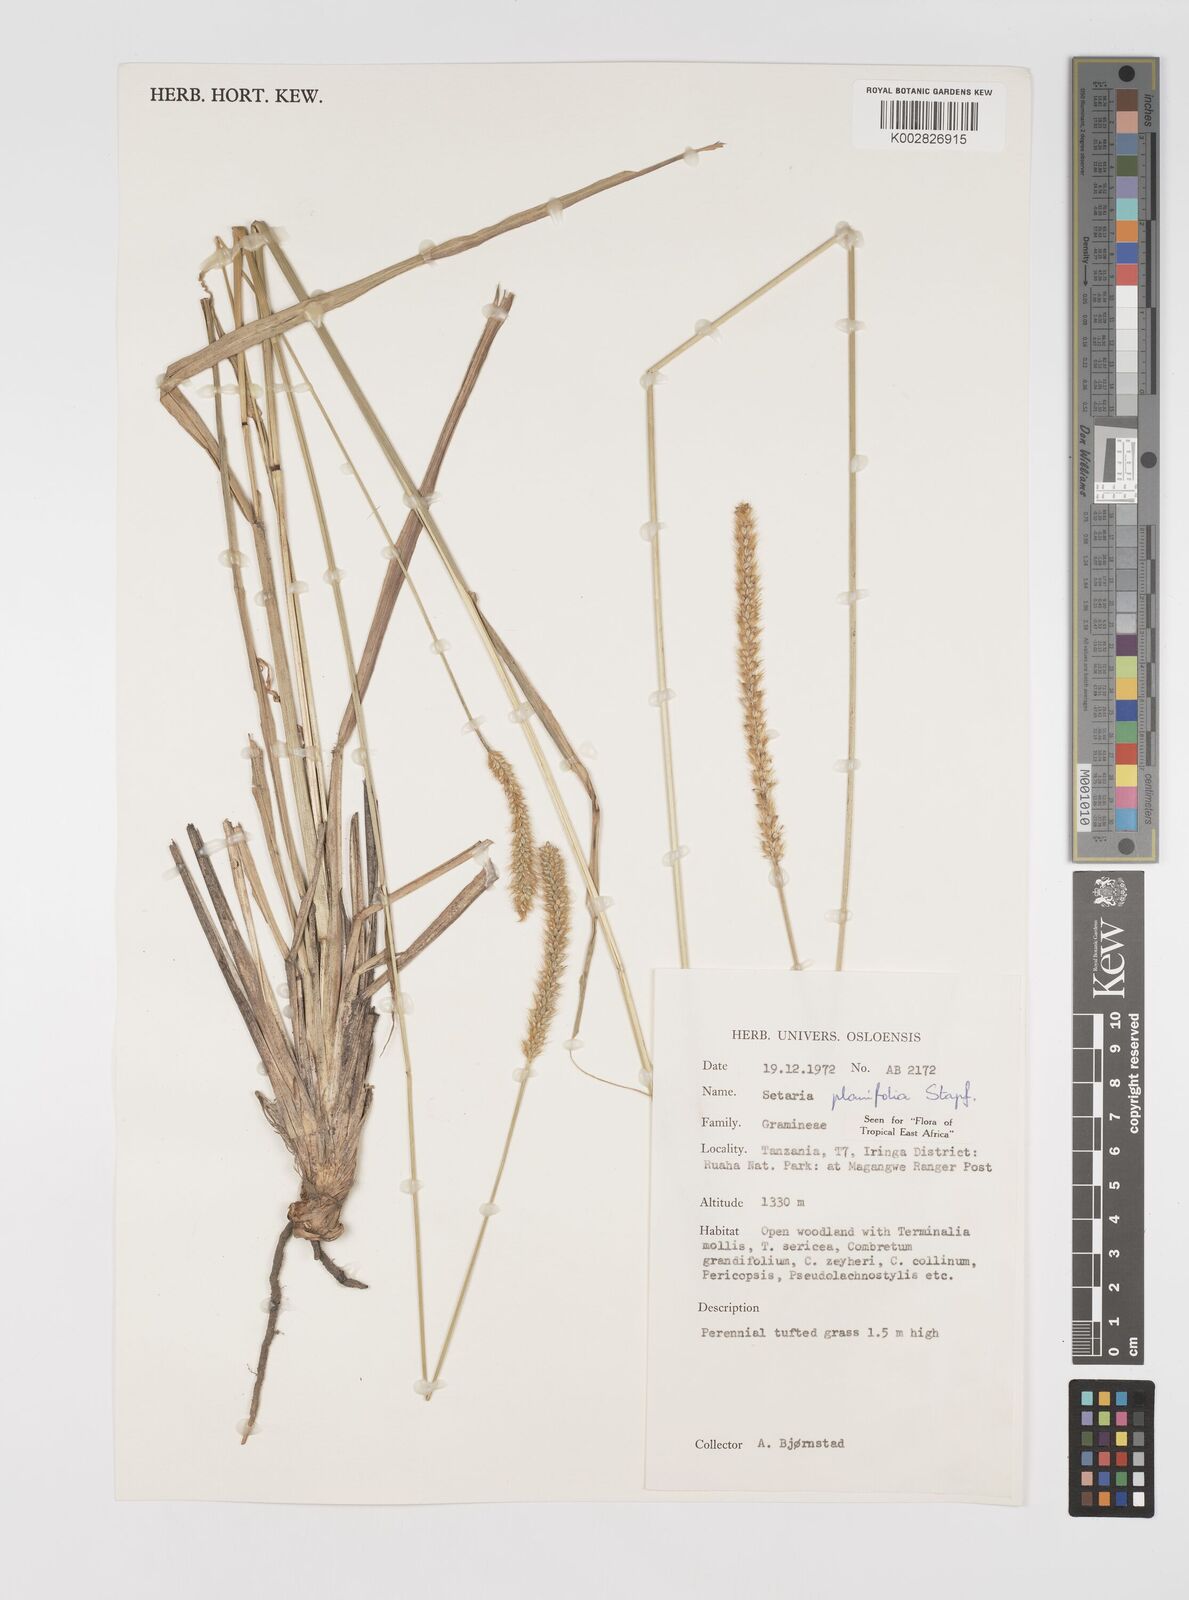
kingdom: Plantae
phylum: Tracheophyta
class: Liliopsida
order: Poales
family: Poaceae
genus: Setaria
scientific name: Setaria sphacelata
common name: African bristlegrass
